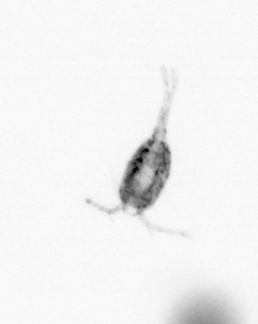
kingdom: Animalia
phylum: Arthropoda
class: Copepoda
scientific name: Copepoda
